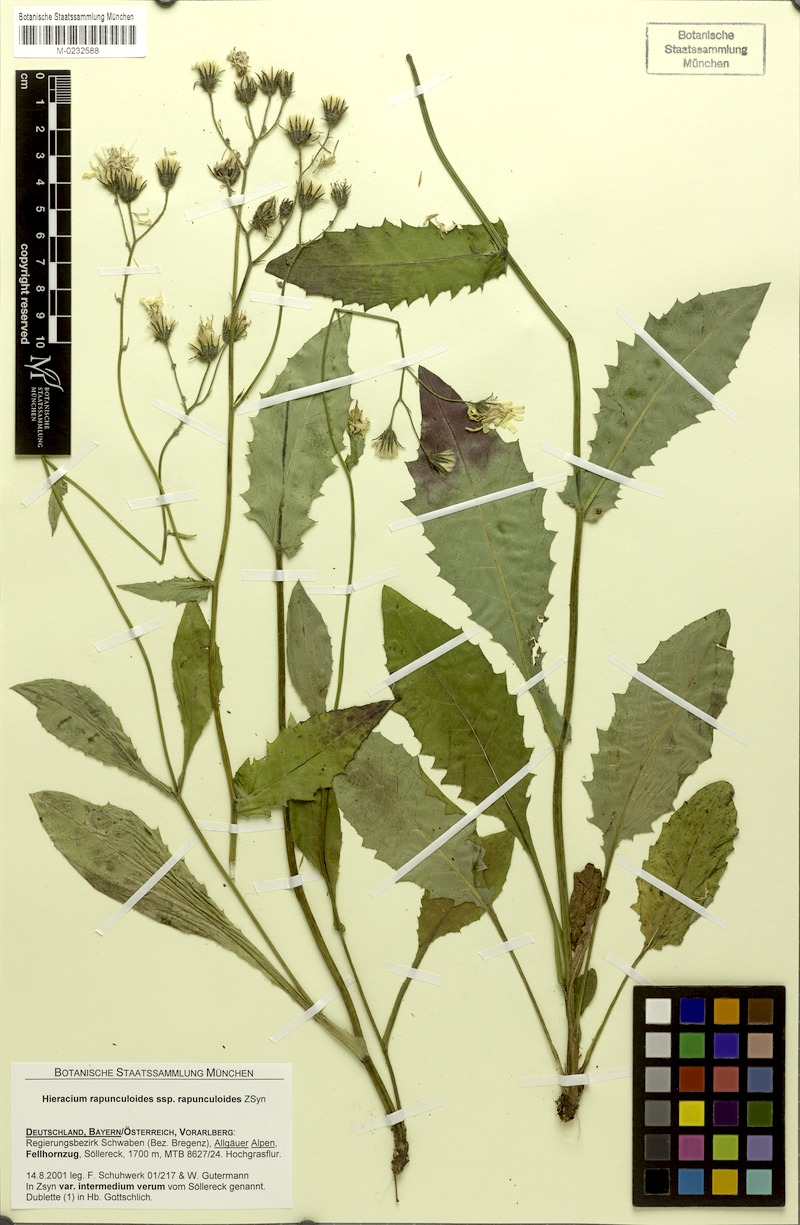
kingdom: Plantae
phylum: Tracheophyta
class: Magnoliopsida
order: Asterales
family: Asteraceae
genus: Hieracium
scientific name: Hieracium rapunculoides
